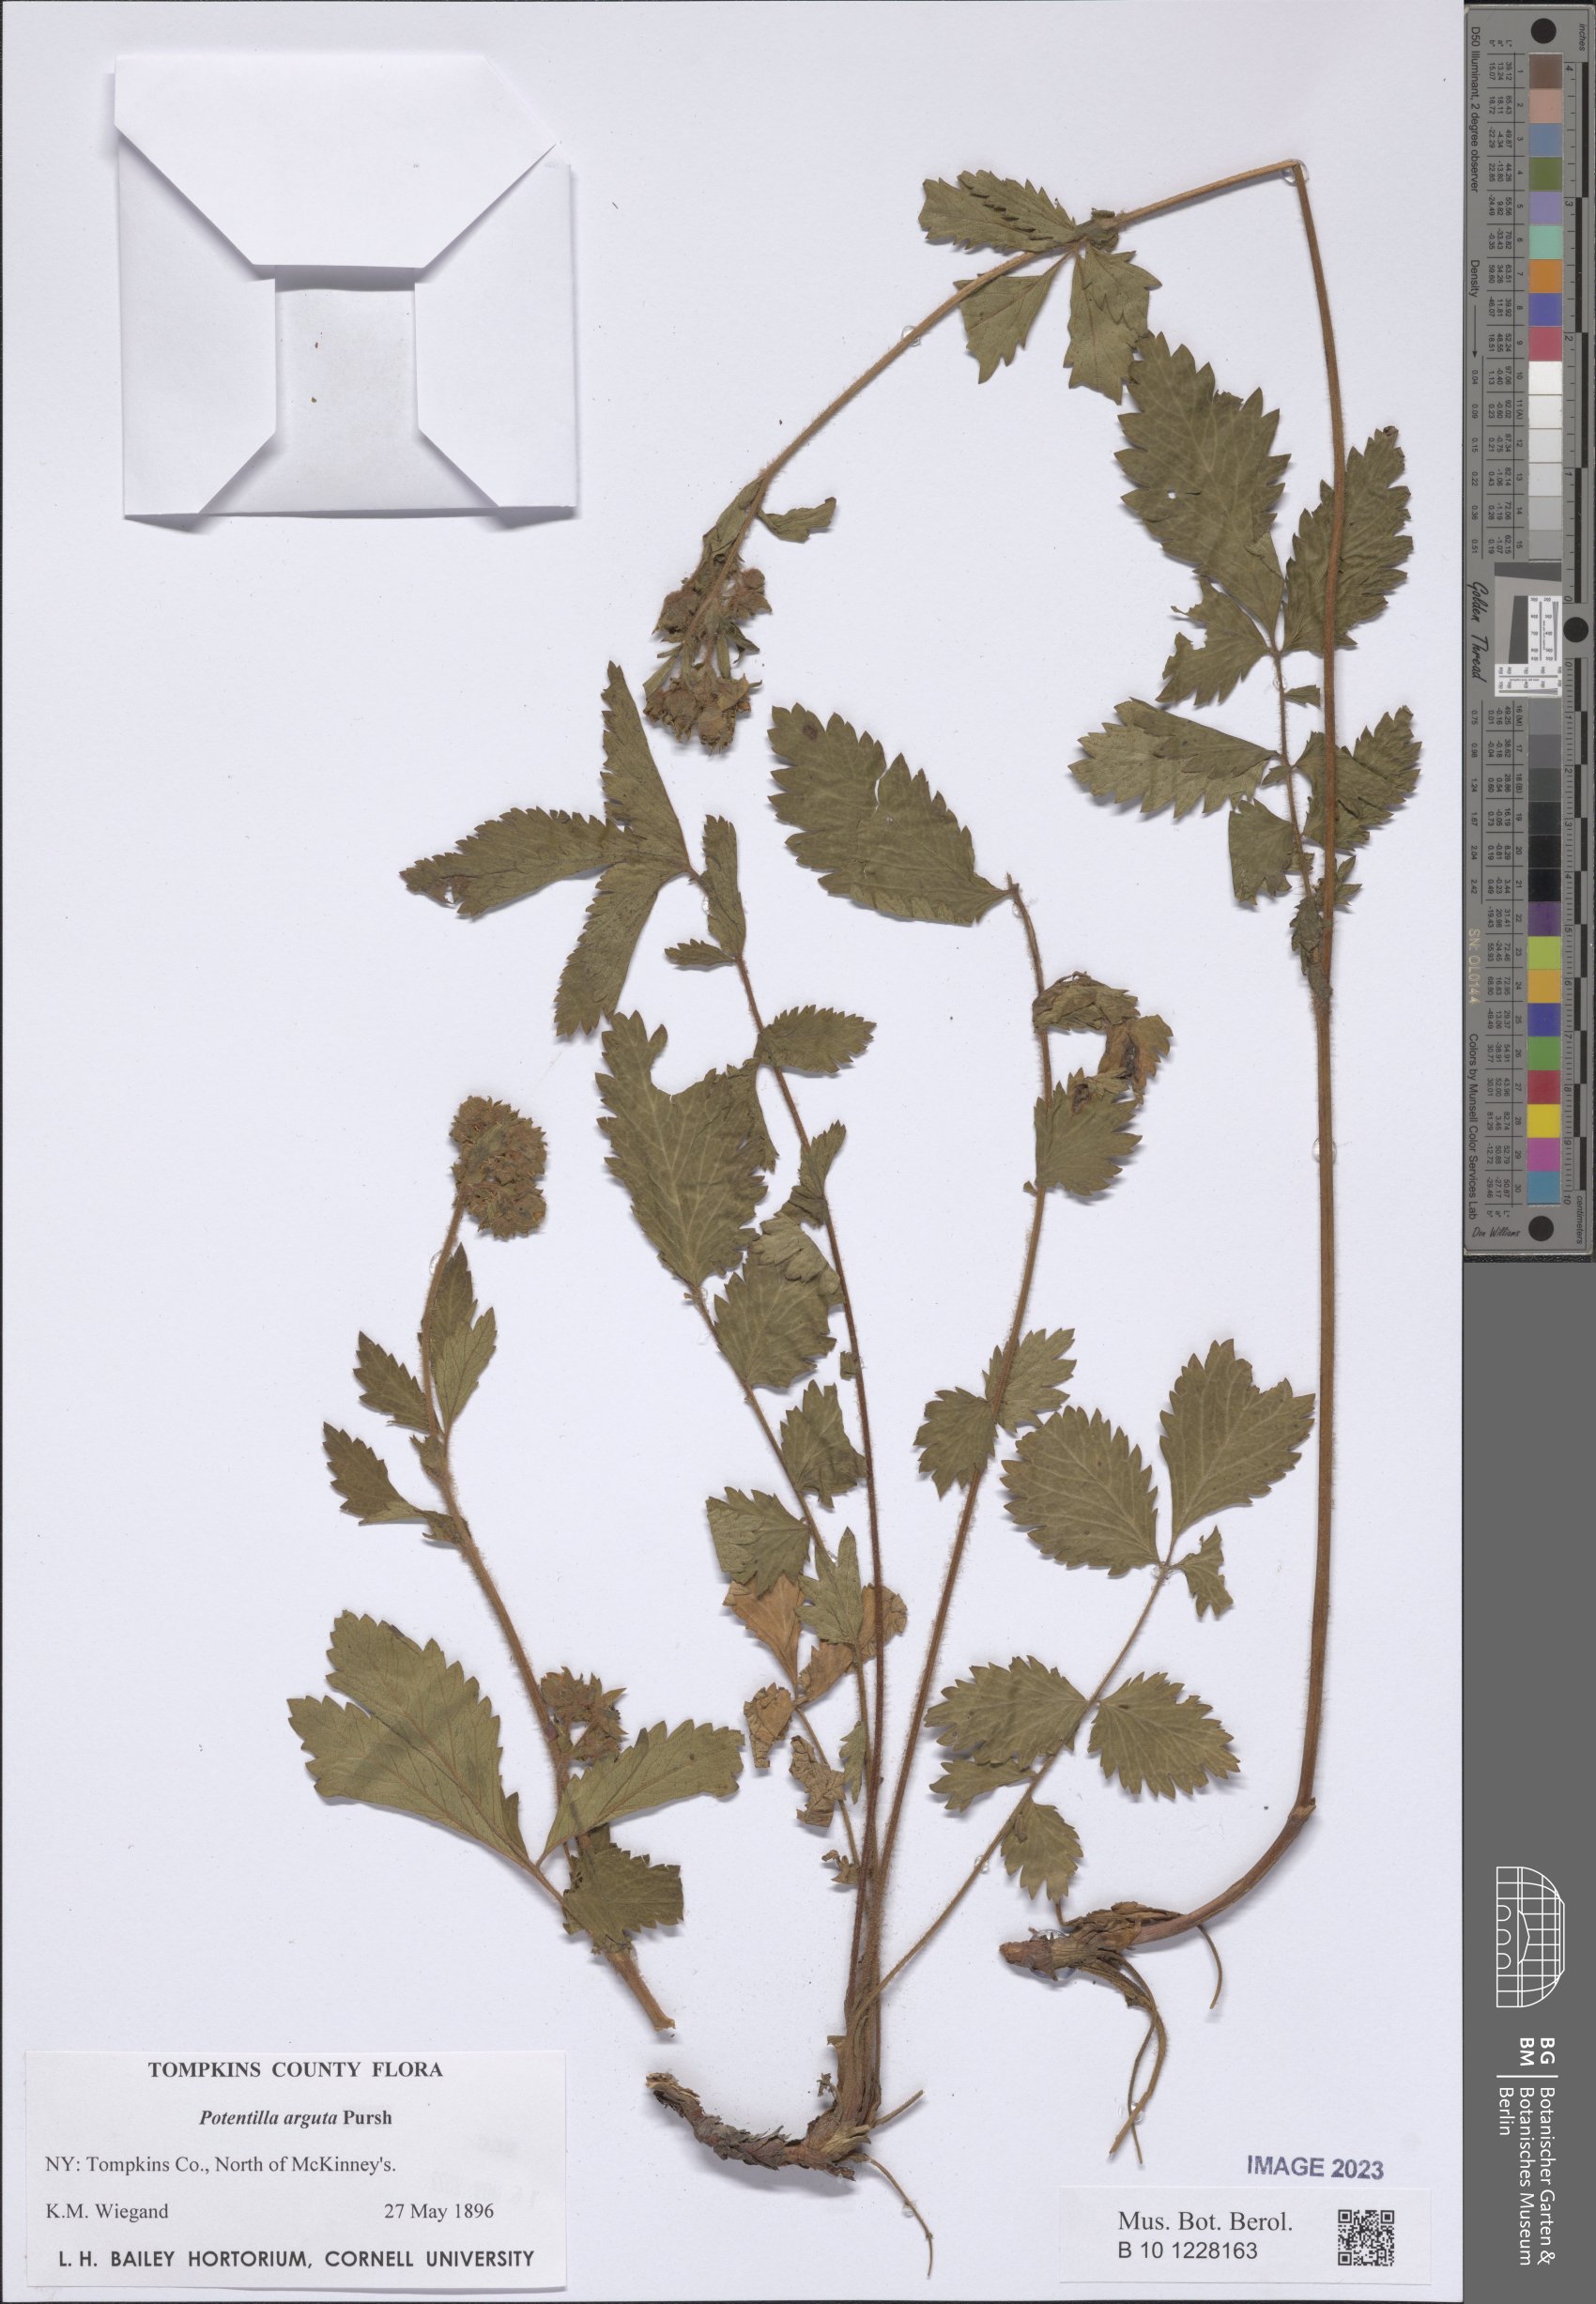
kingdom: Plantae
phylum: Tracheophyta
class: Magnoliopsida
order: Rosales
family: Rosaceae
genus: Drymocallis
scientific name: Drymocallis arguta
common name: Tall cinquefoil
